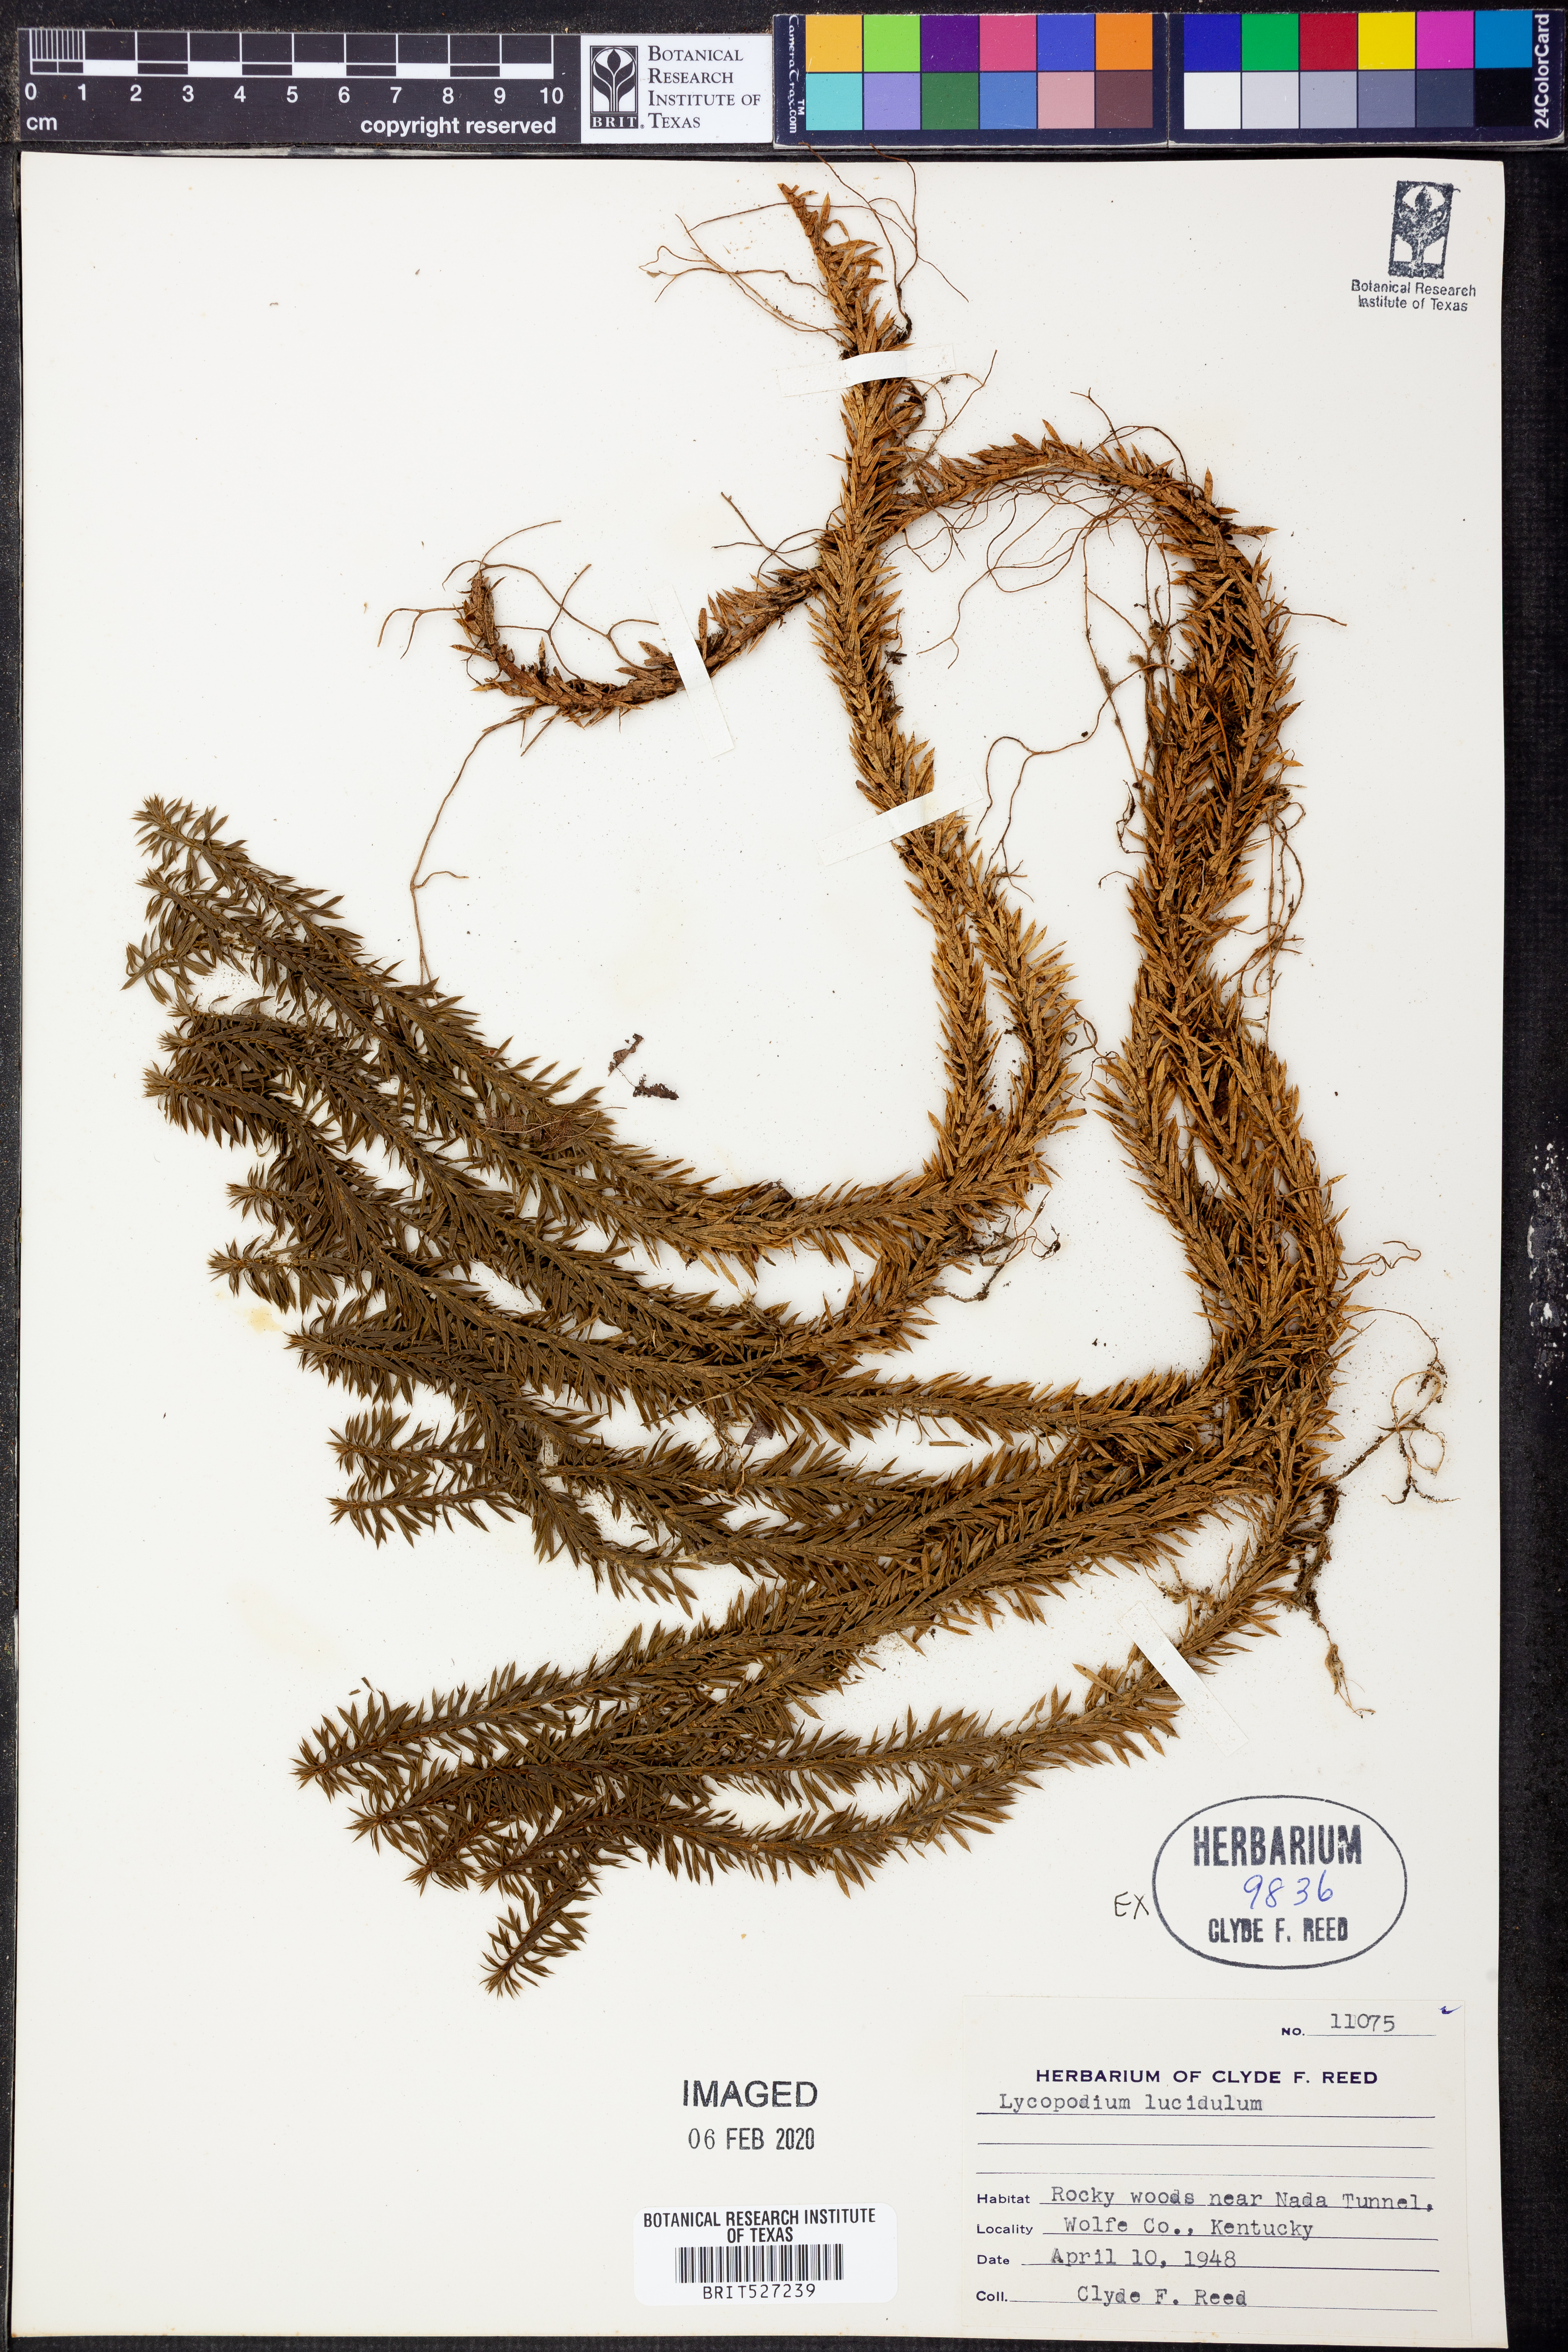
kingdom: Plantae
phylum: Tracheophyta
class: Lycopodiopsida
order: Lycopodiales
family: Lycopodiaceae
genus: Huperzia
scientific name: Huperzia lucidula
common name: Shining clubmoss
